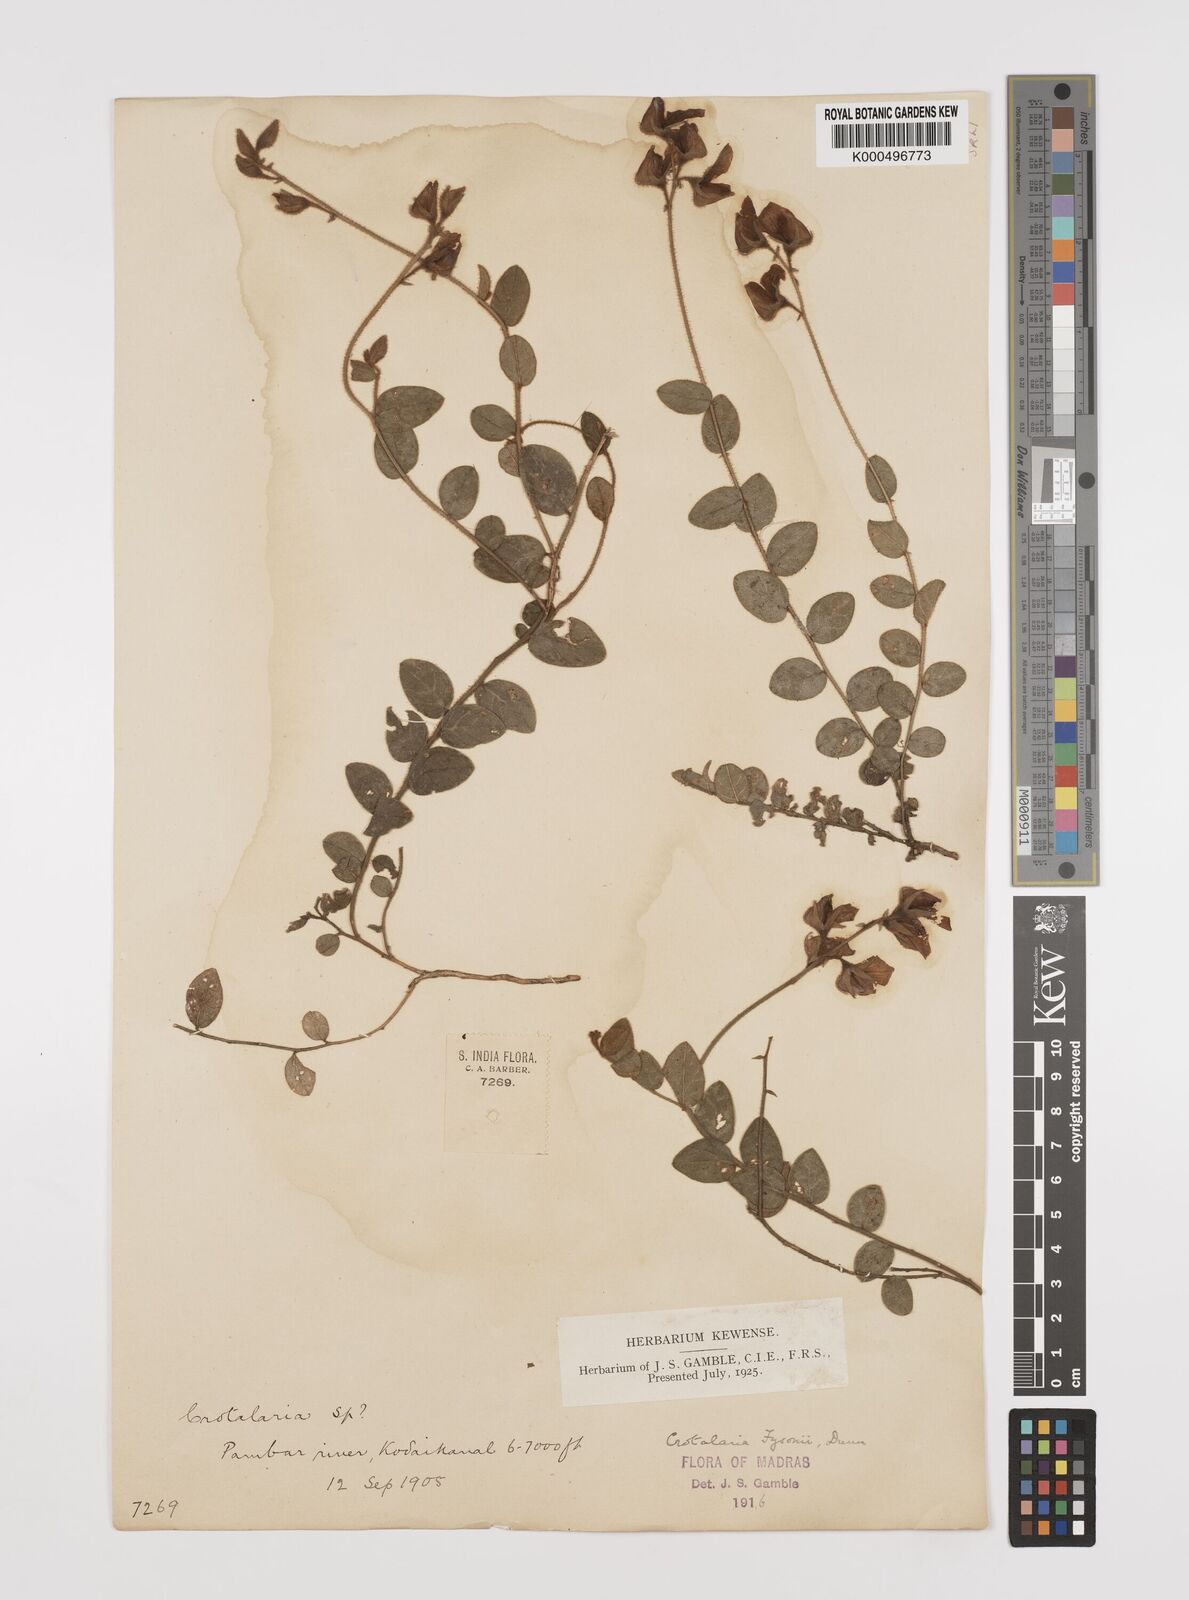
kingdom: Plantae
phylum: Tracheophyta
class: Magnoliopsida
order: Fabales
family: Fabaceae
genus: Crotalaria
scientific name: Crotalaria fysonii
